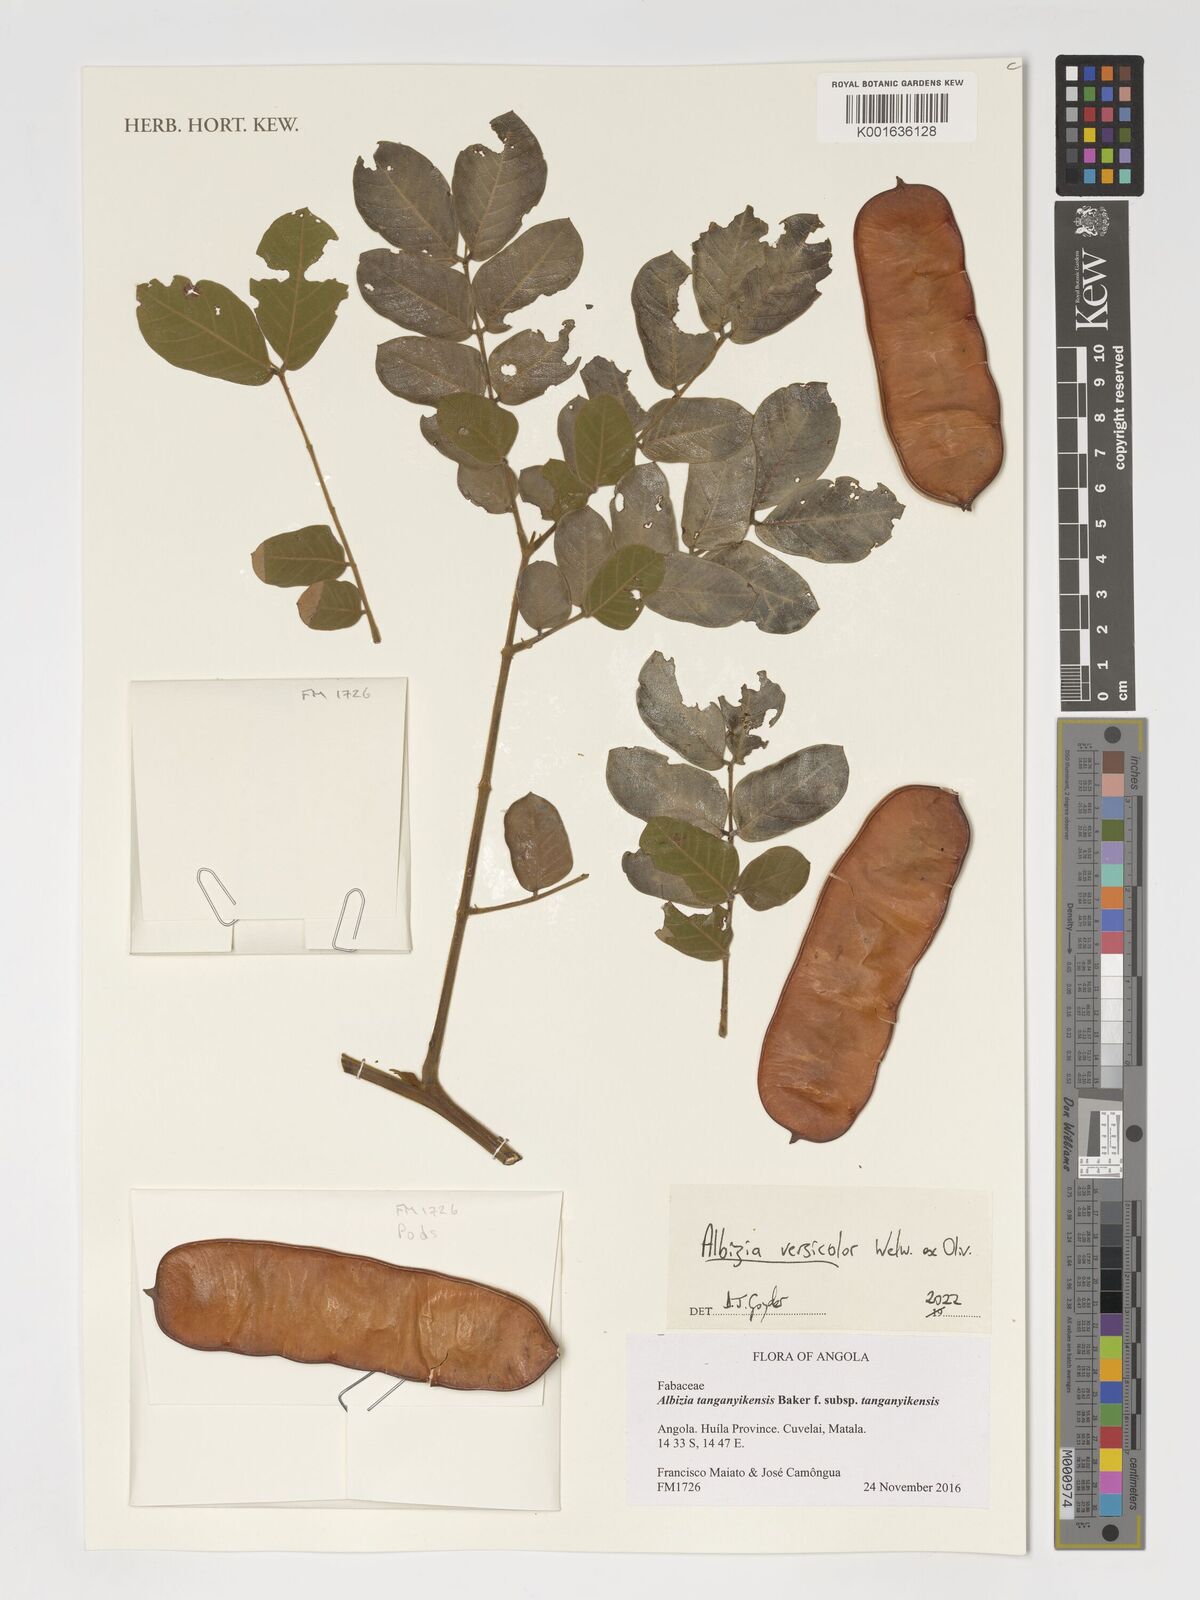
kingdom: Plantae
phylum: Tracheophyta
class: Magnoliopsida
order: Fabales
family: Fabaceae
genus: Albizia
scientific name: Albizia versicolor
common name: Poisonpod
